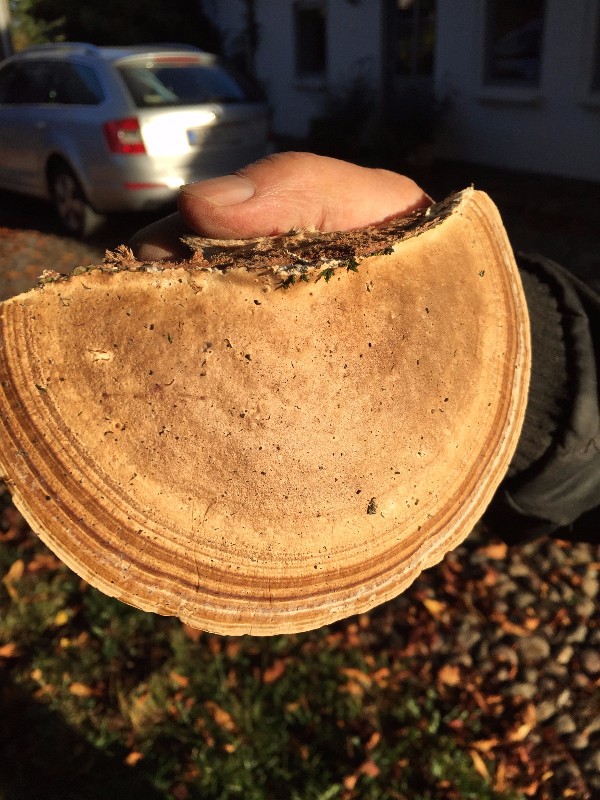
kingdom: Fungi
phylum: Basidiomycota
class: Agaricomycetes
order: Polyporales
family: Polyporaceae
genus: Daedaleopsis
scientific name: Daedaleopsis confragosa
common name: rødmende læderporesvamp
